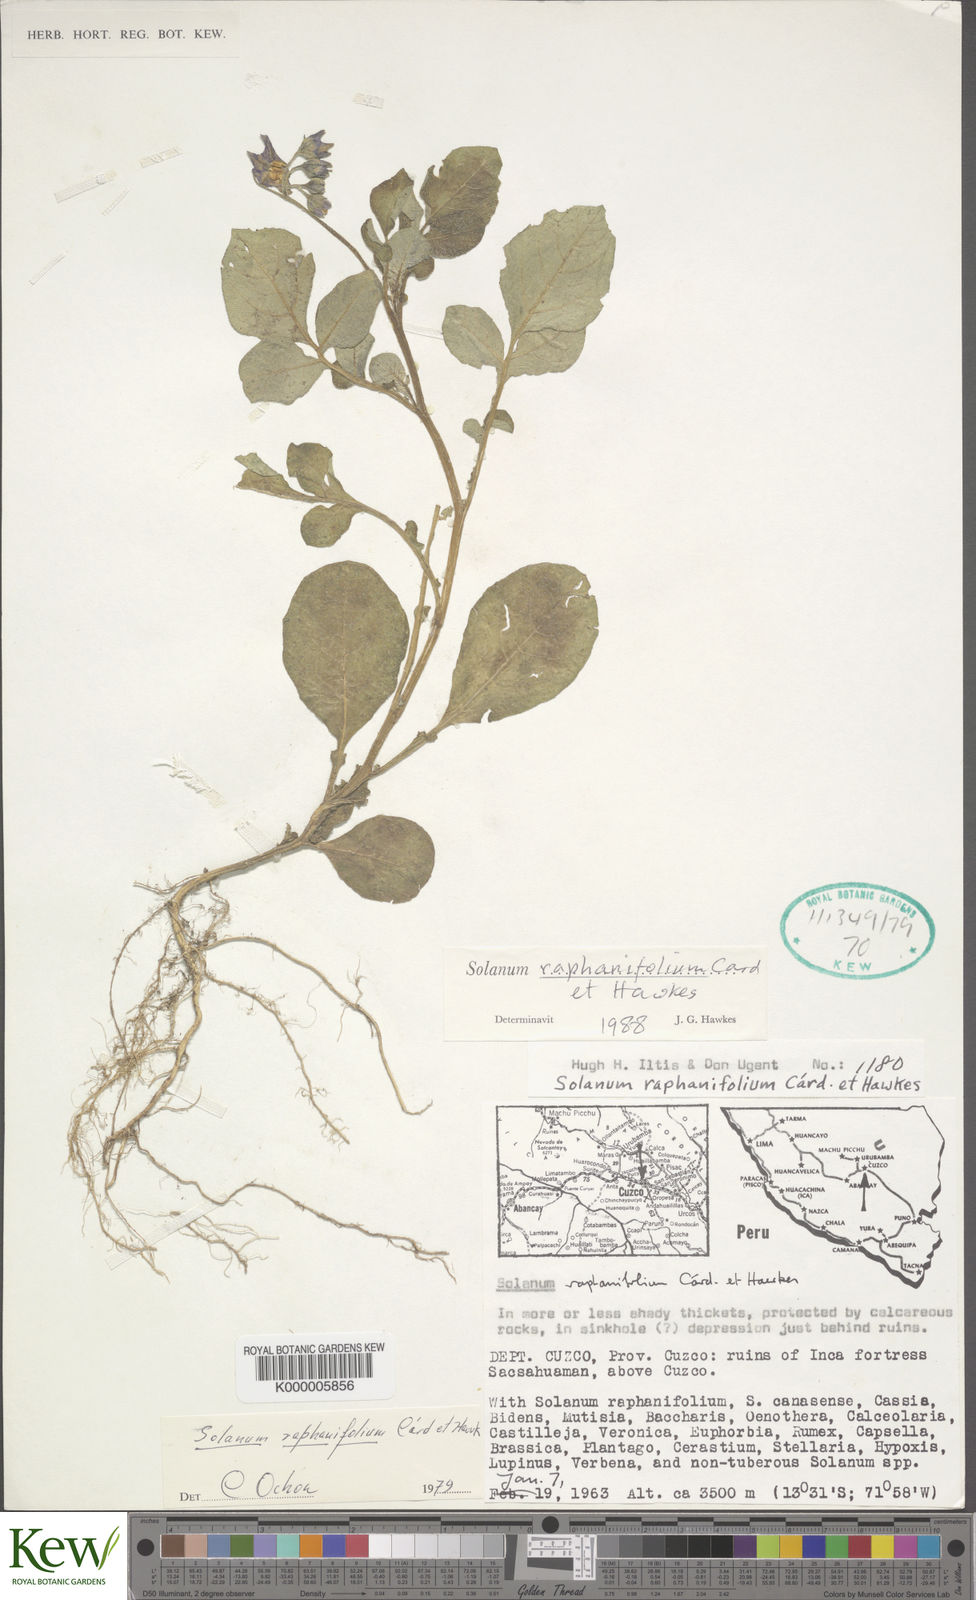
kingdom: Plantae
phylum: Tracheophyta
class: Magnoliopsida
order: Solanales
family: Solanaceae
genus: Solanum
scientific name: Solanum raphanifolium
